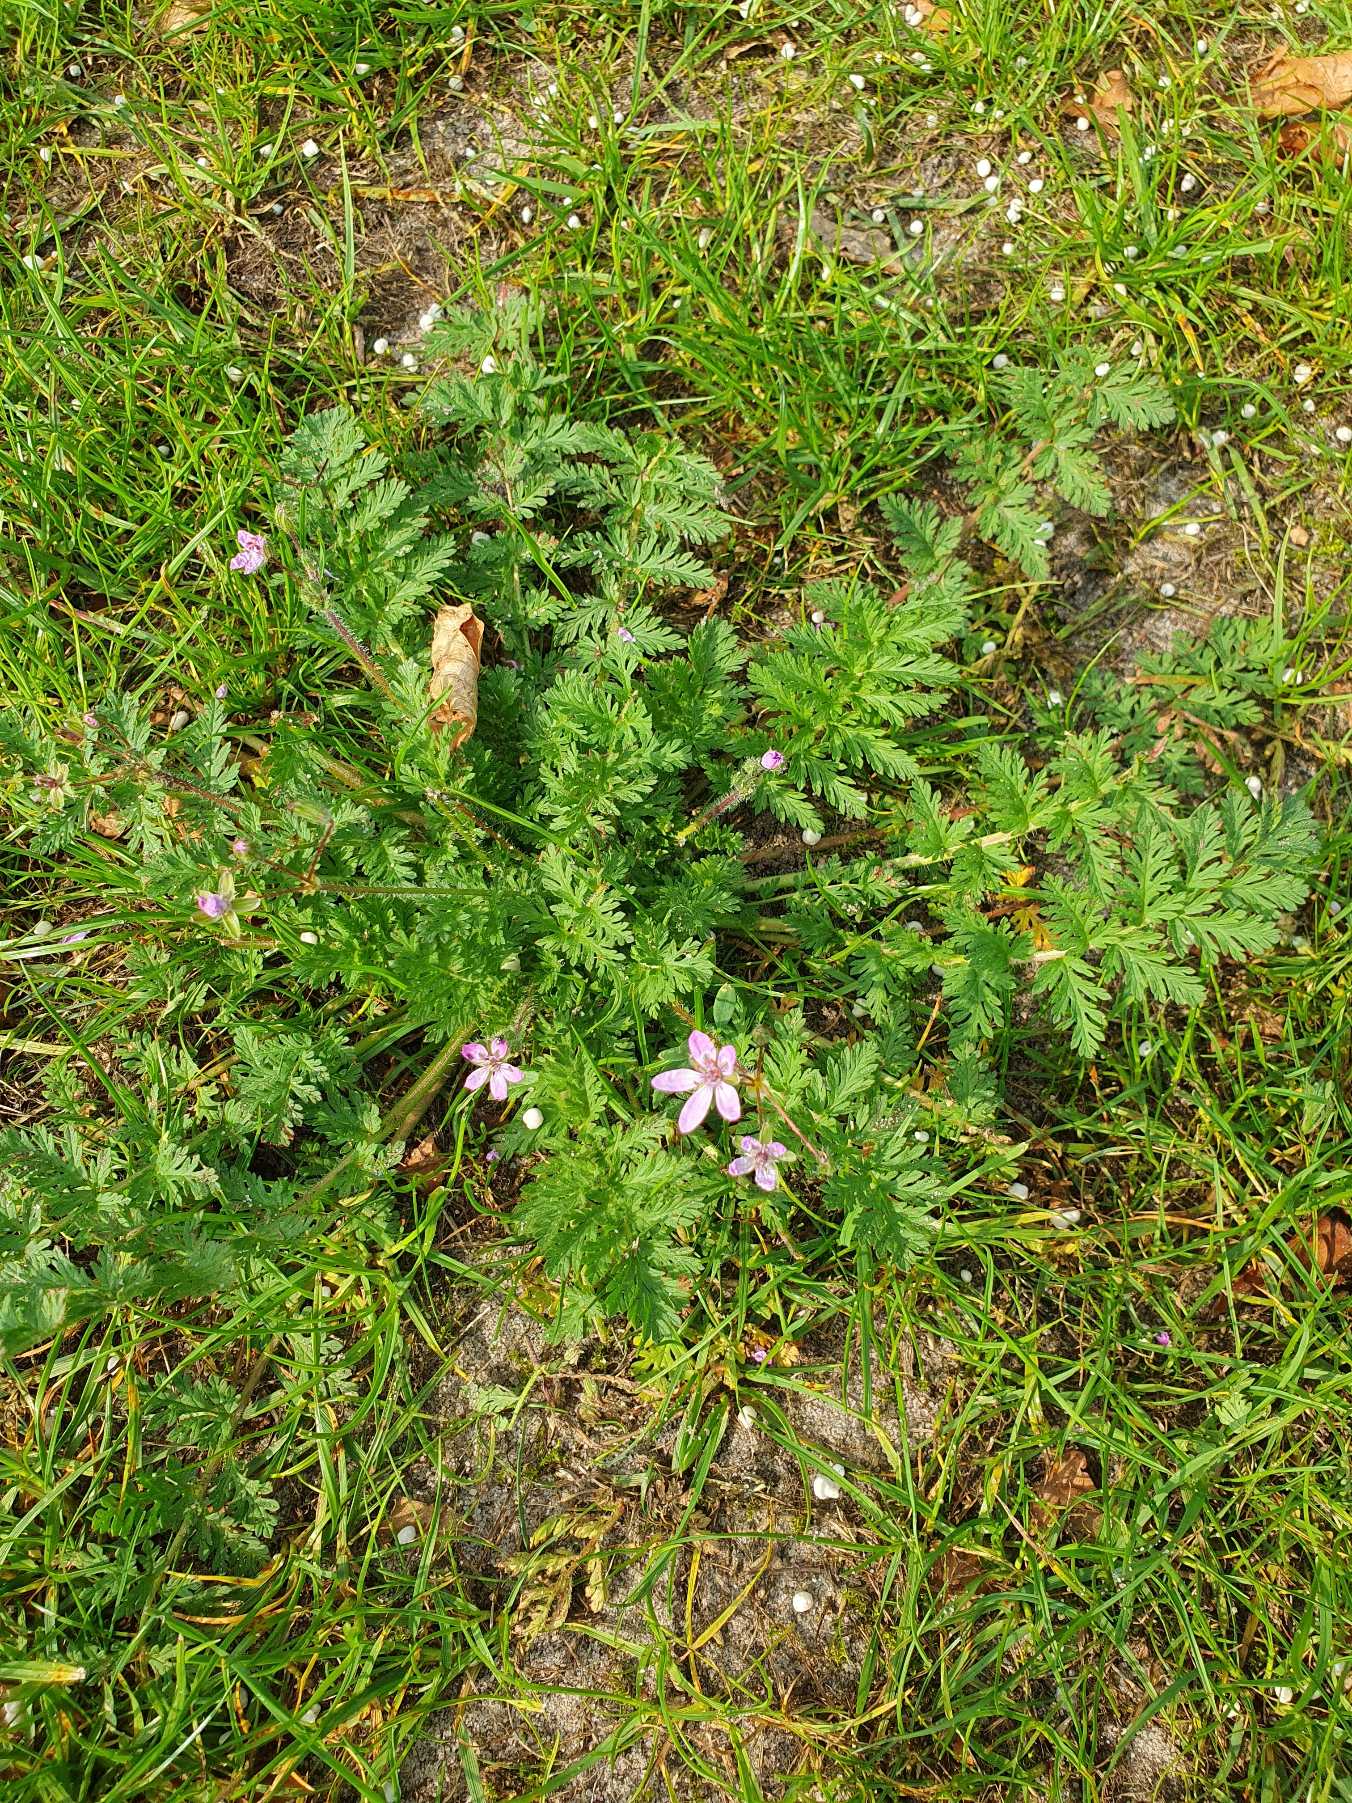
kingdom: Plantae
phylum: Tracheophyta
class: Magnoliopsida
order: Geraniales
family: Geraniaceae
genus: Erodium
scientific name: Erodium cicutarium
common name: Hejrenæb
